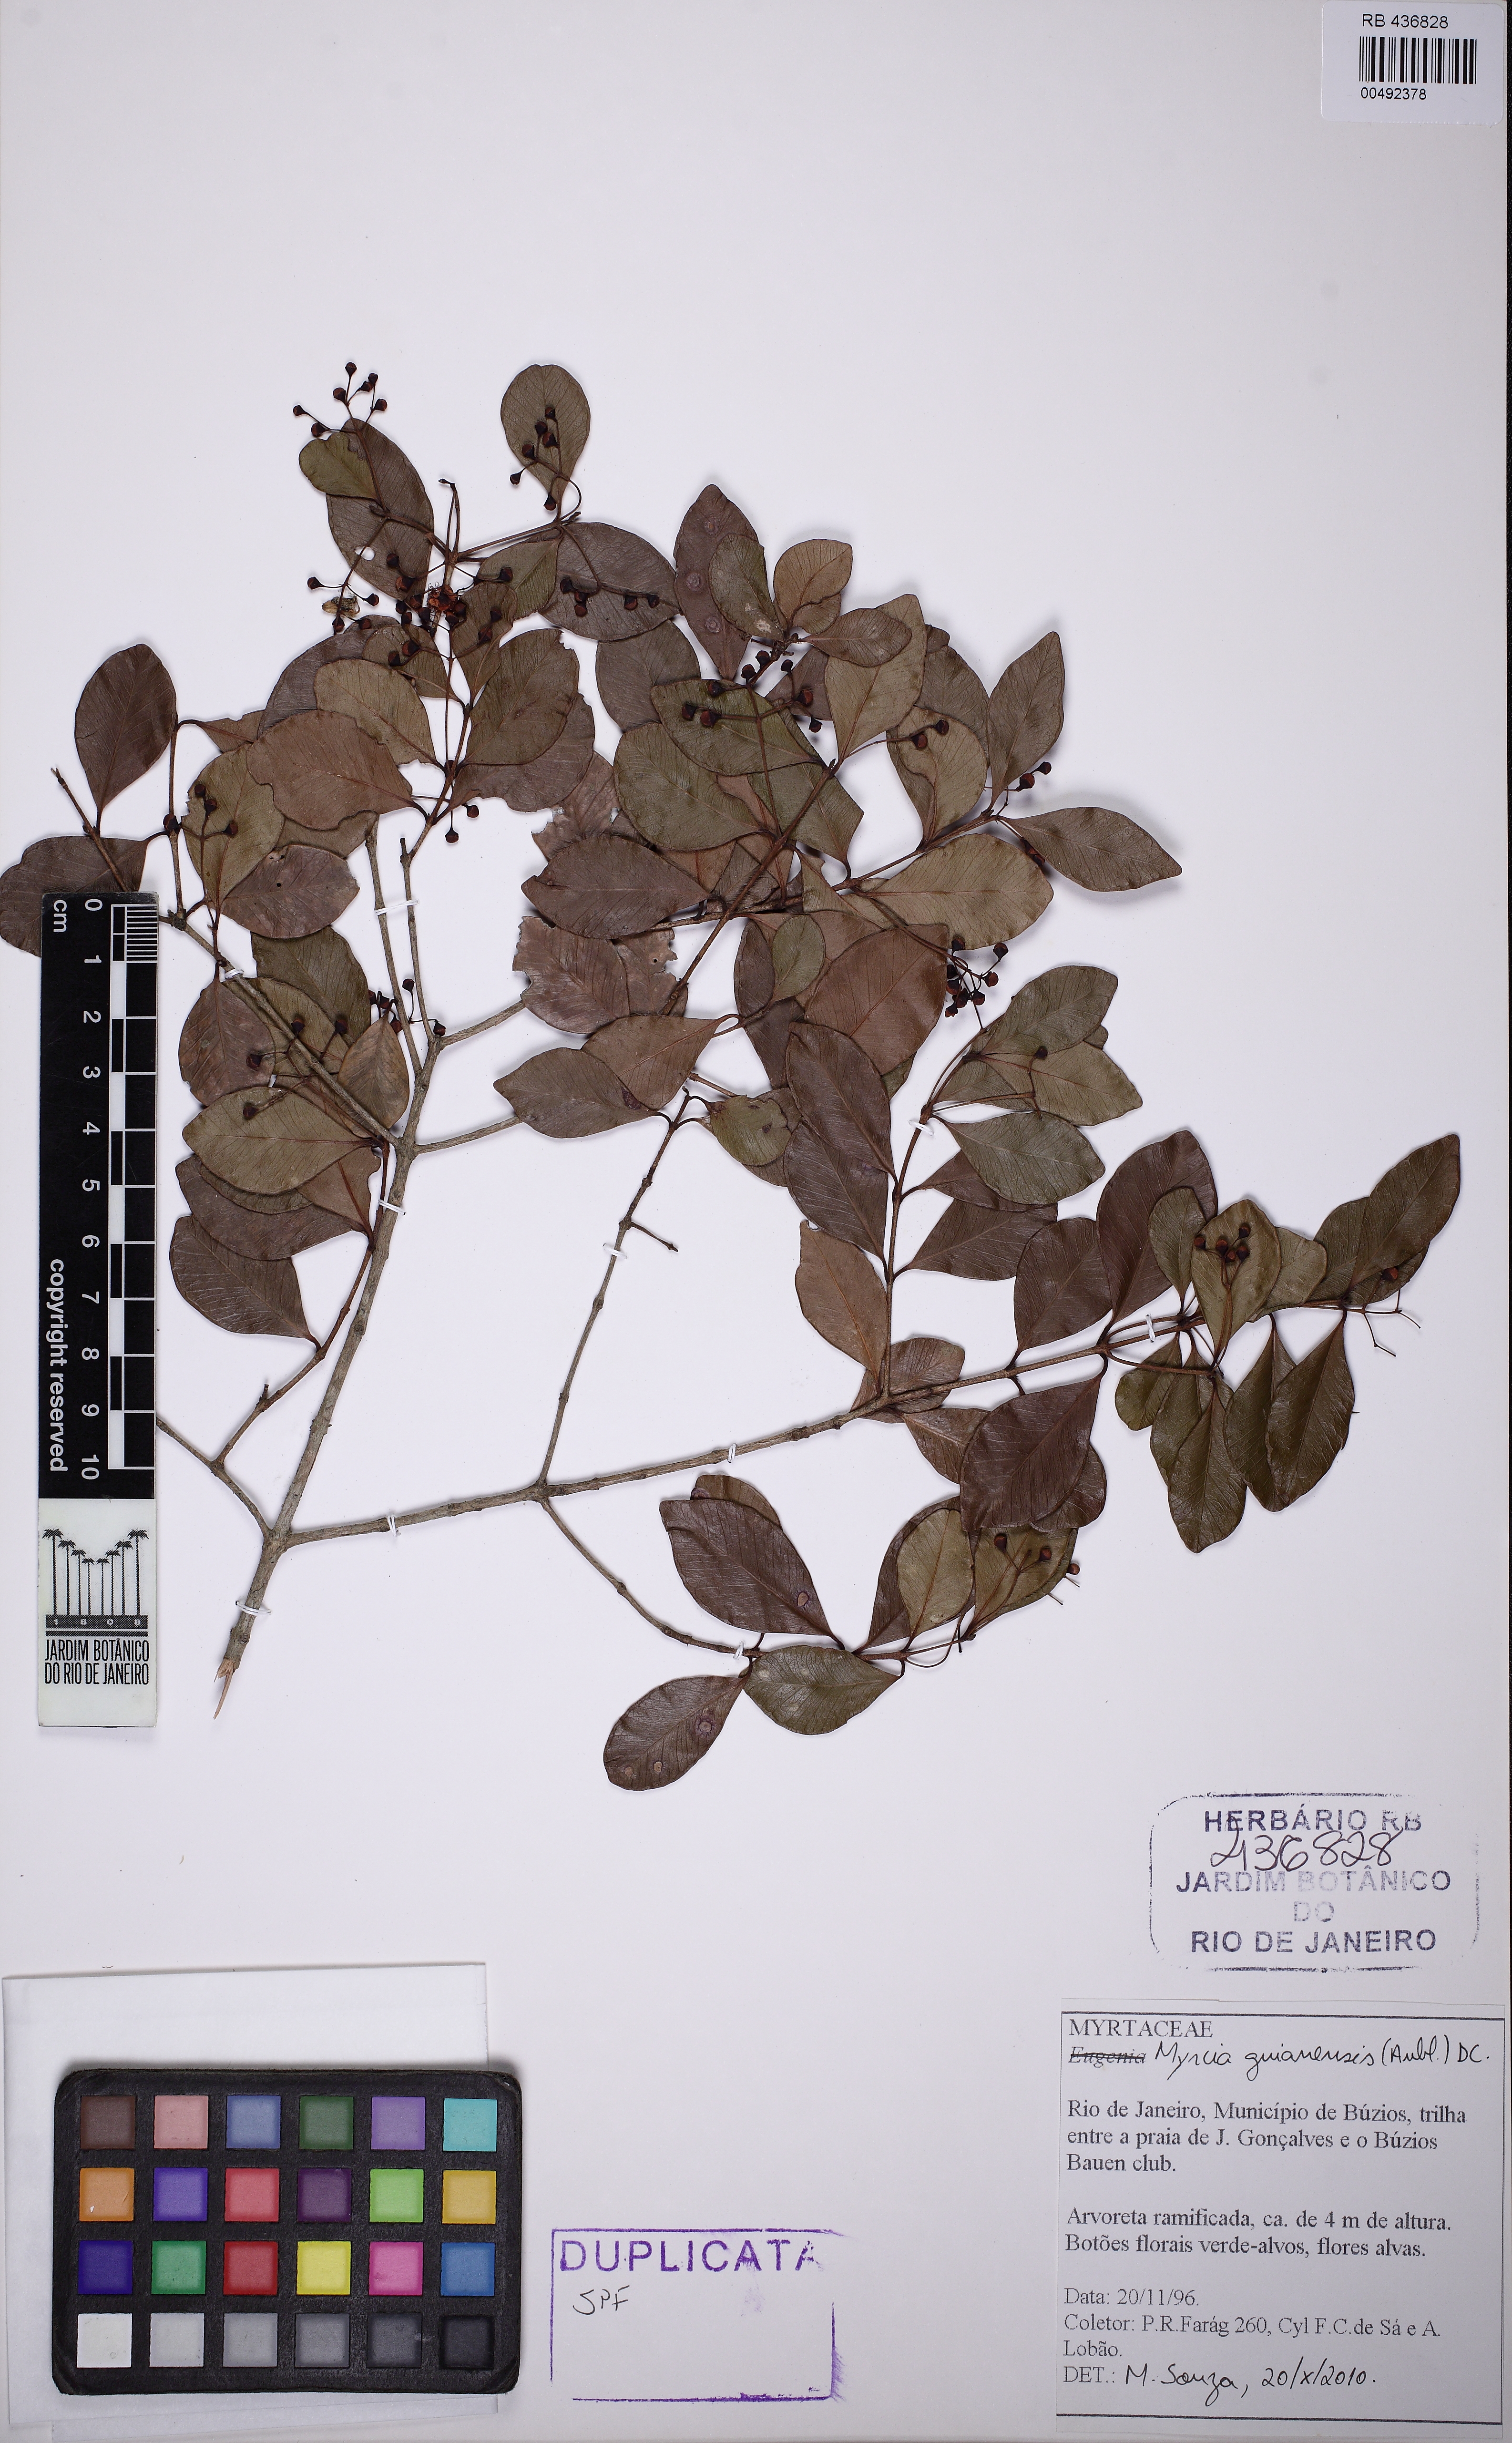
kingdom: Plantae
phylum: Tracheophyta
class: Magnoliopsida
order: Myrtales
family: Myrtaceae
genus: Myrcia
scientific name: Myrcia guianensis
